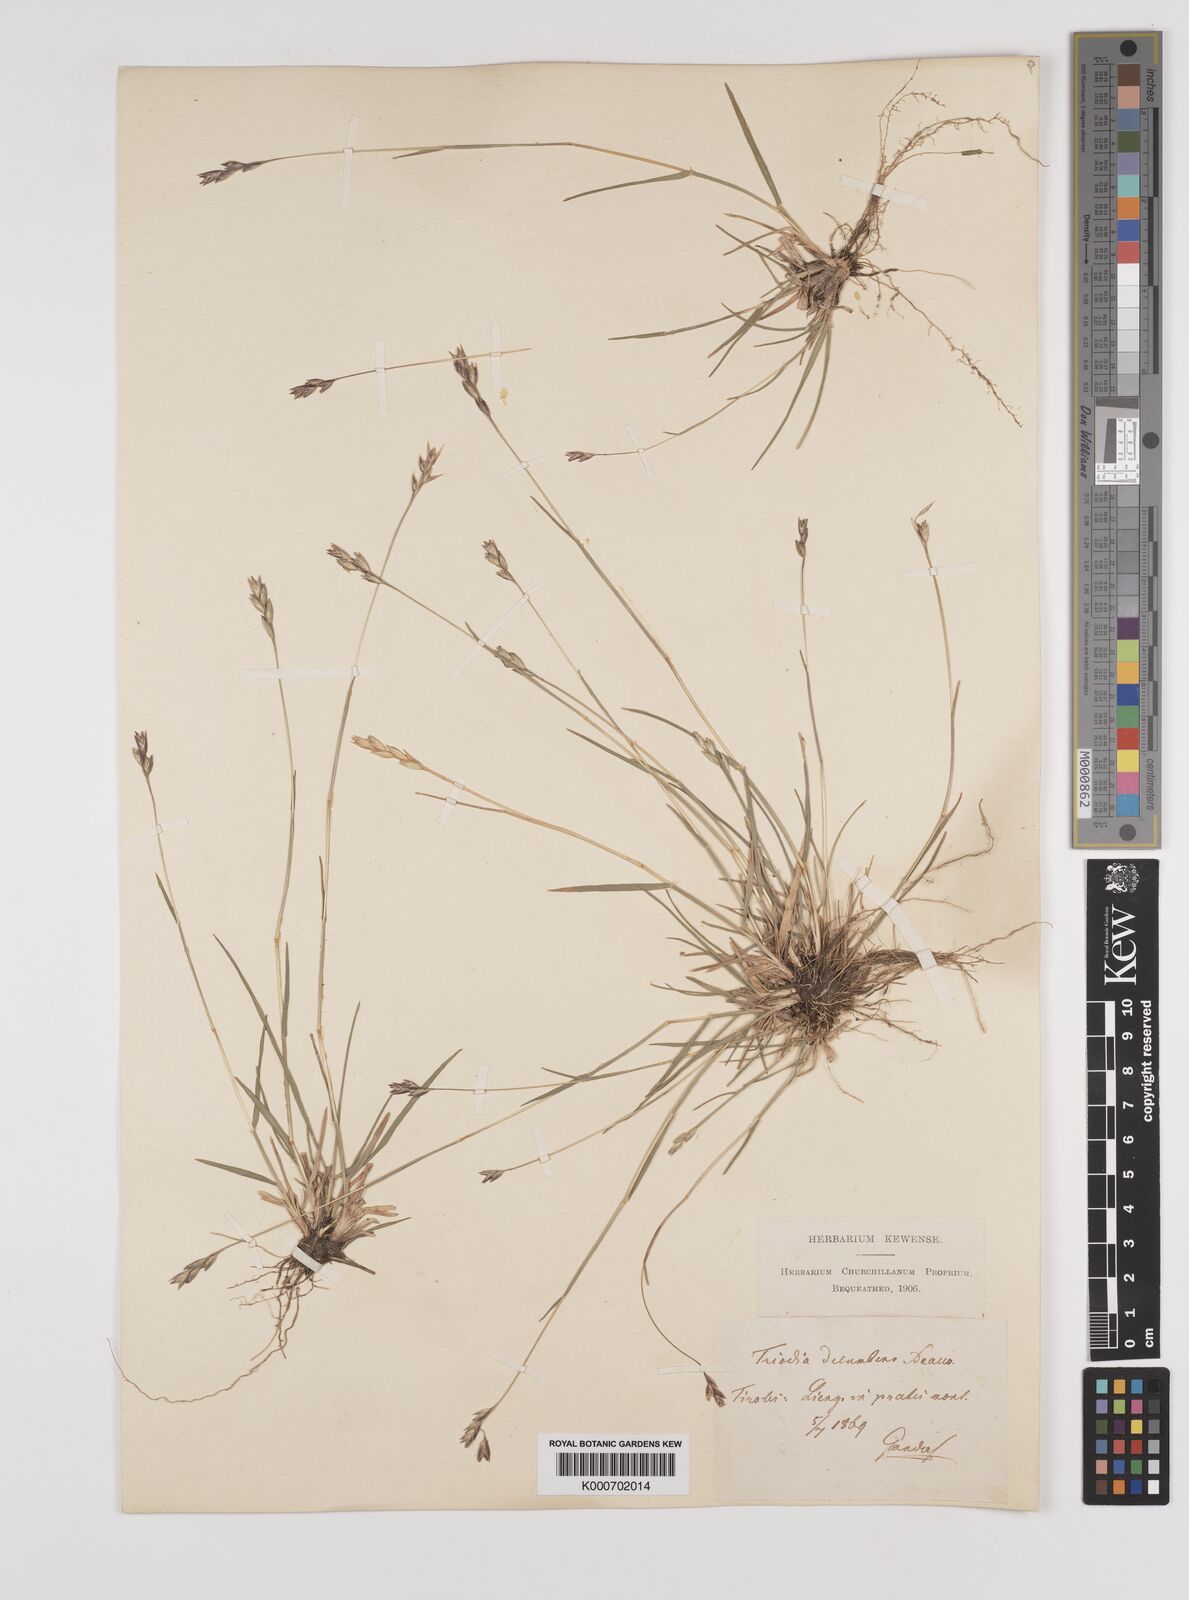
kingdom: Plantae
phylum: Tracheophyta
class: Liliopsida
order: Poales
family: Poaceae
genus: Danthonia
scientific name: Danthonia decumbens
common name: Common heathgrass
